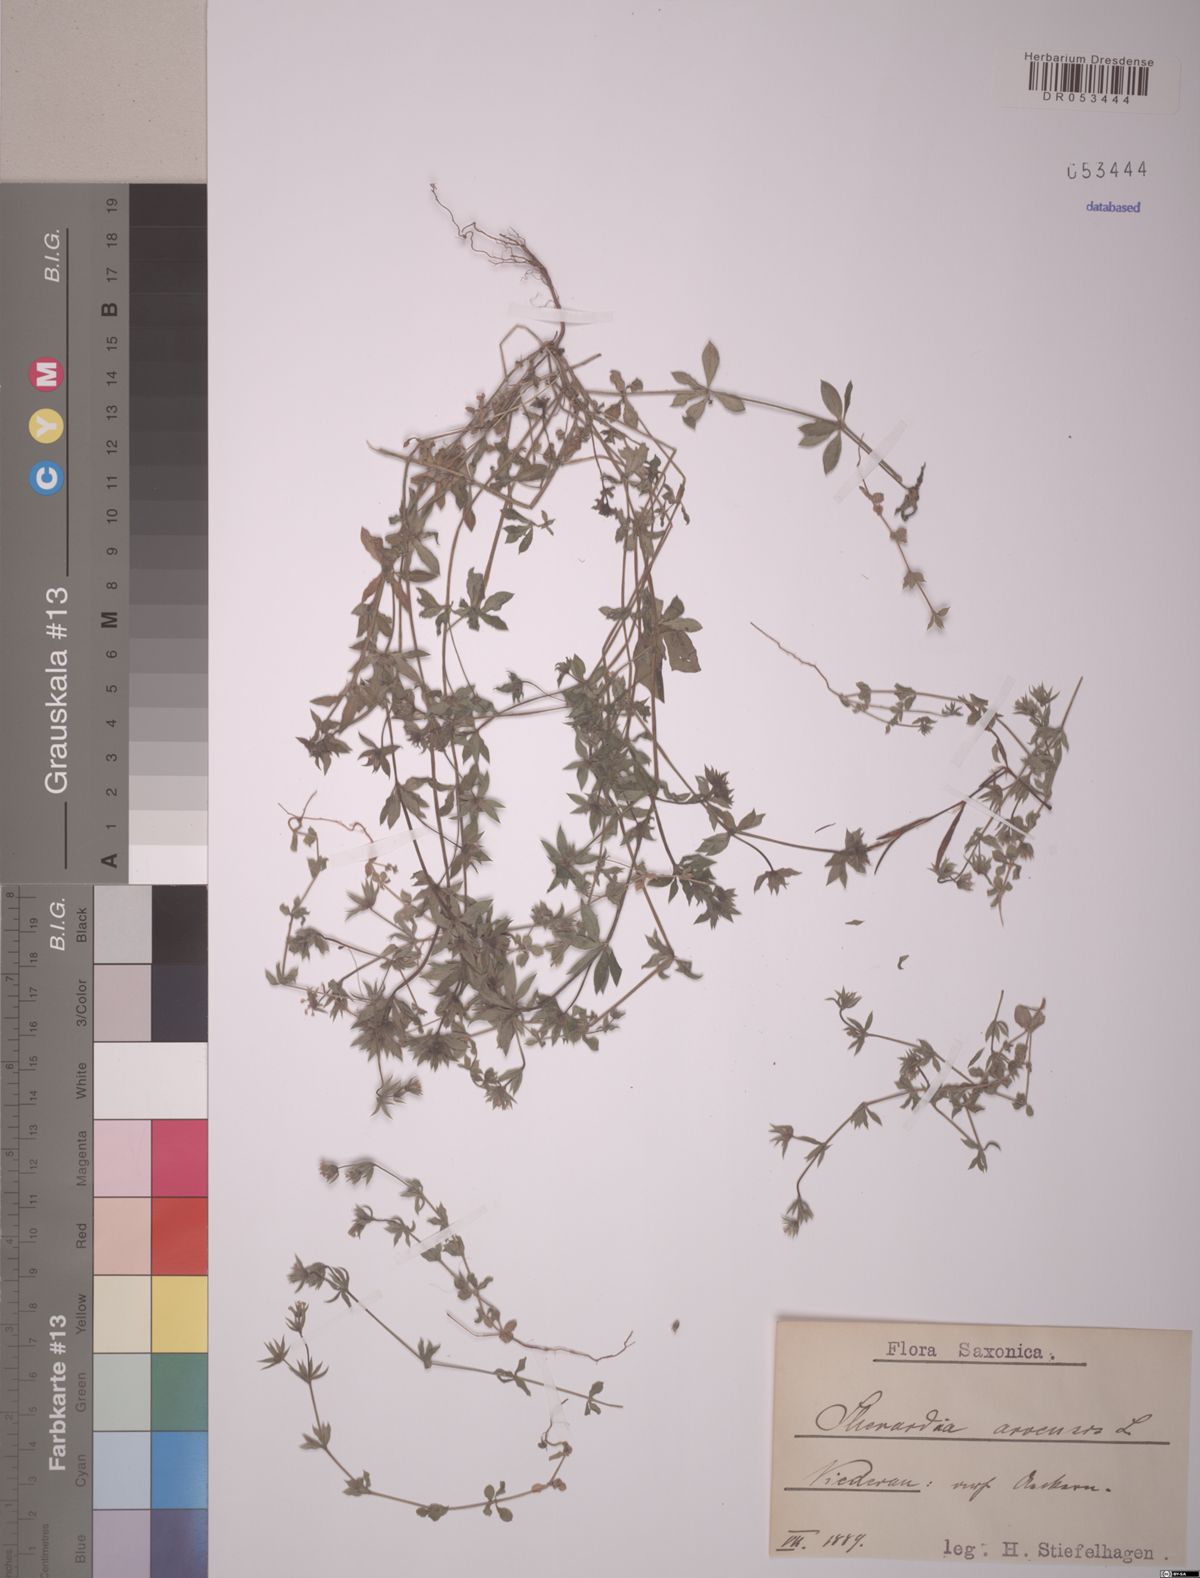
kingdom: Plantae
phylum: Tracheophyta
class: Magnoliopsida
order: Gentianales
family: Rubiaceae
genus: Sherardia
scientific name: Sherardia arvensis
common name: Field madder
